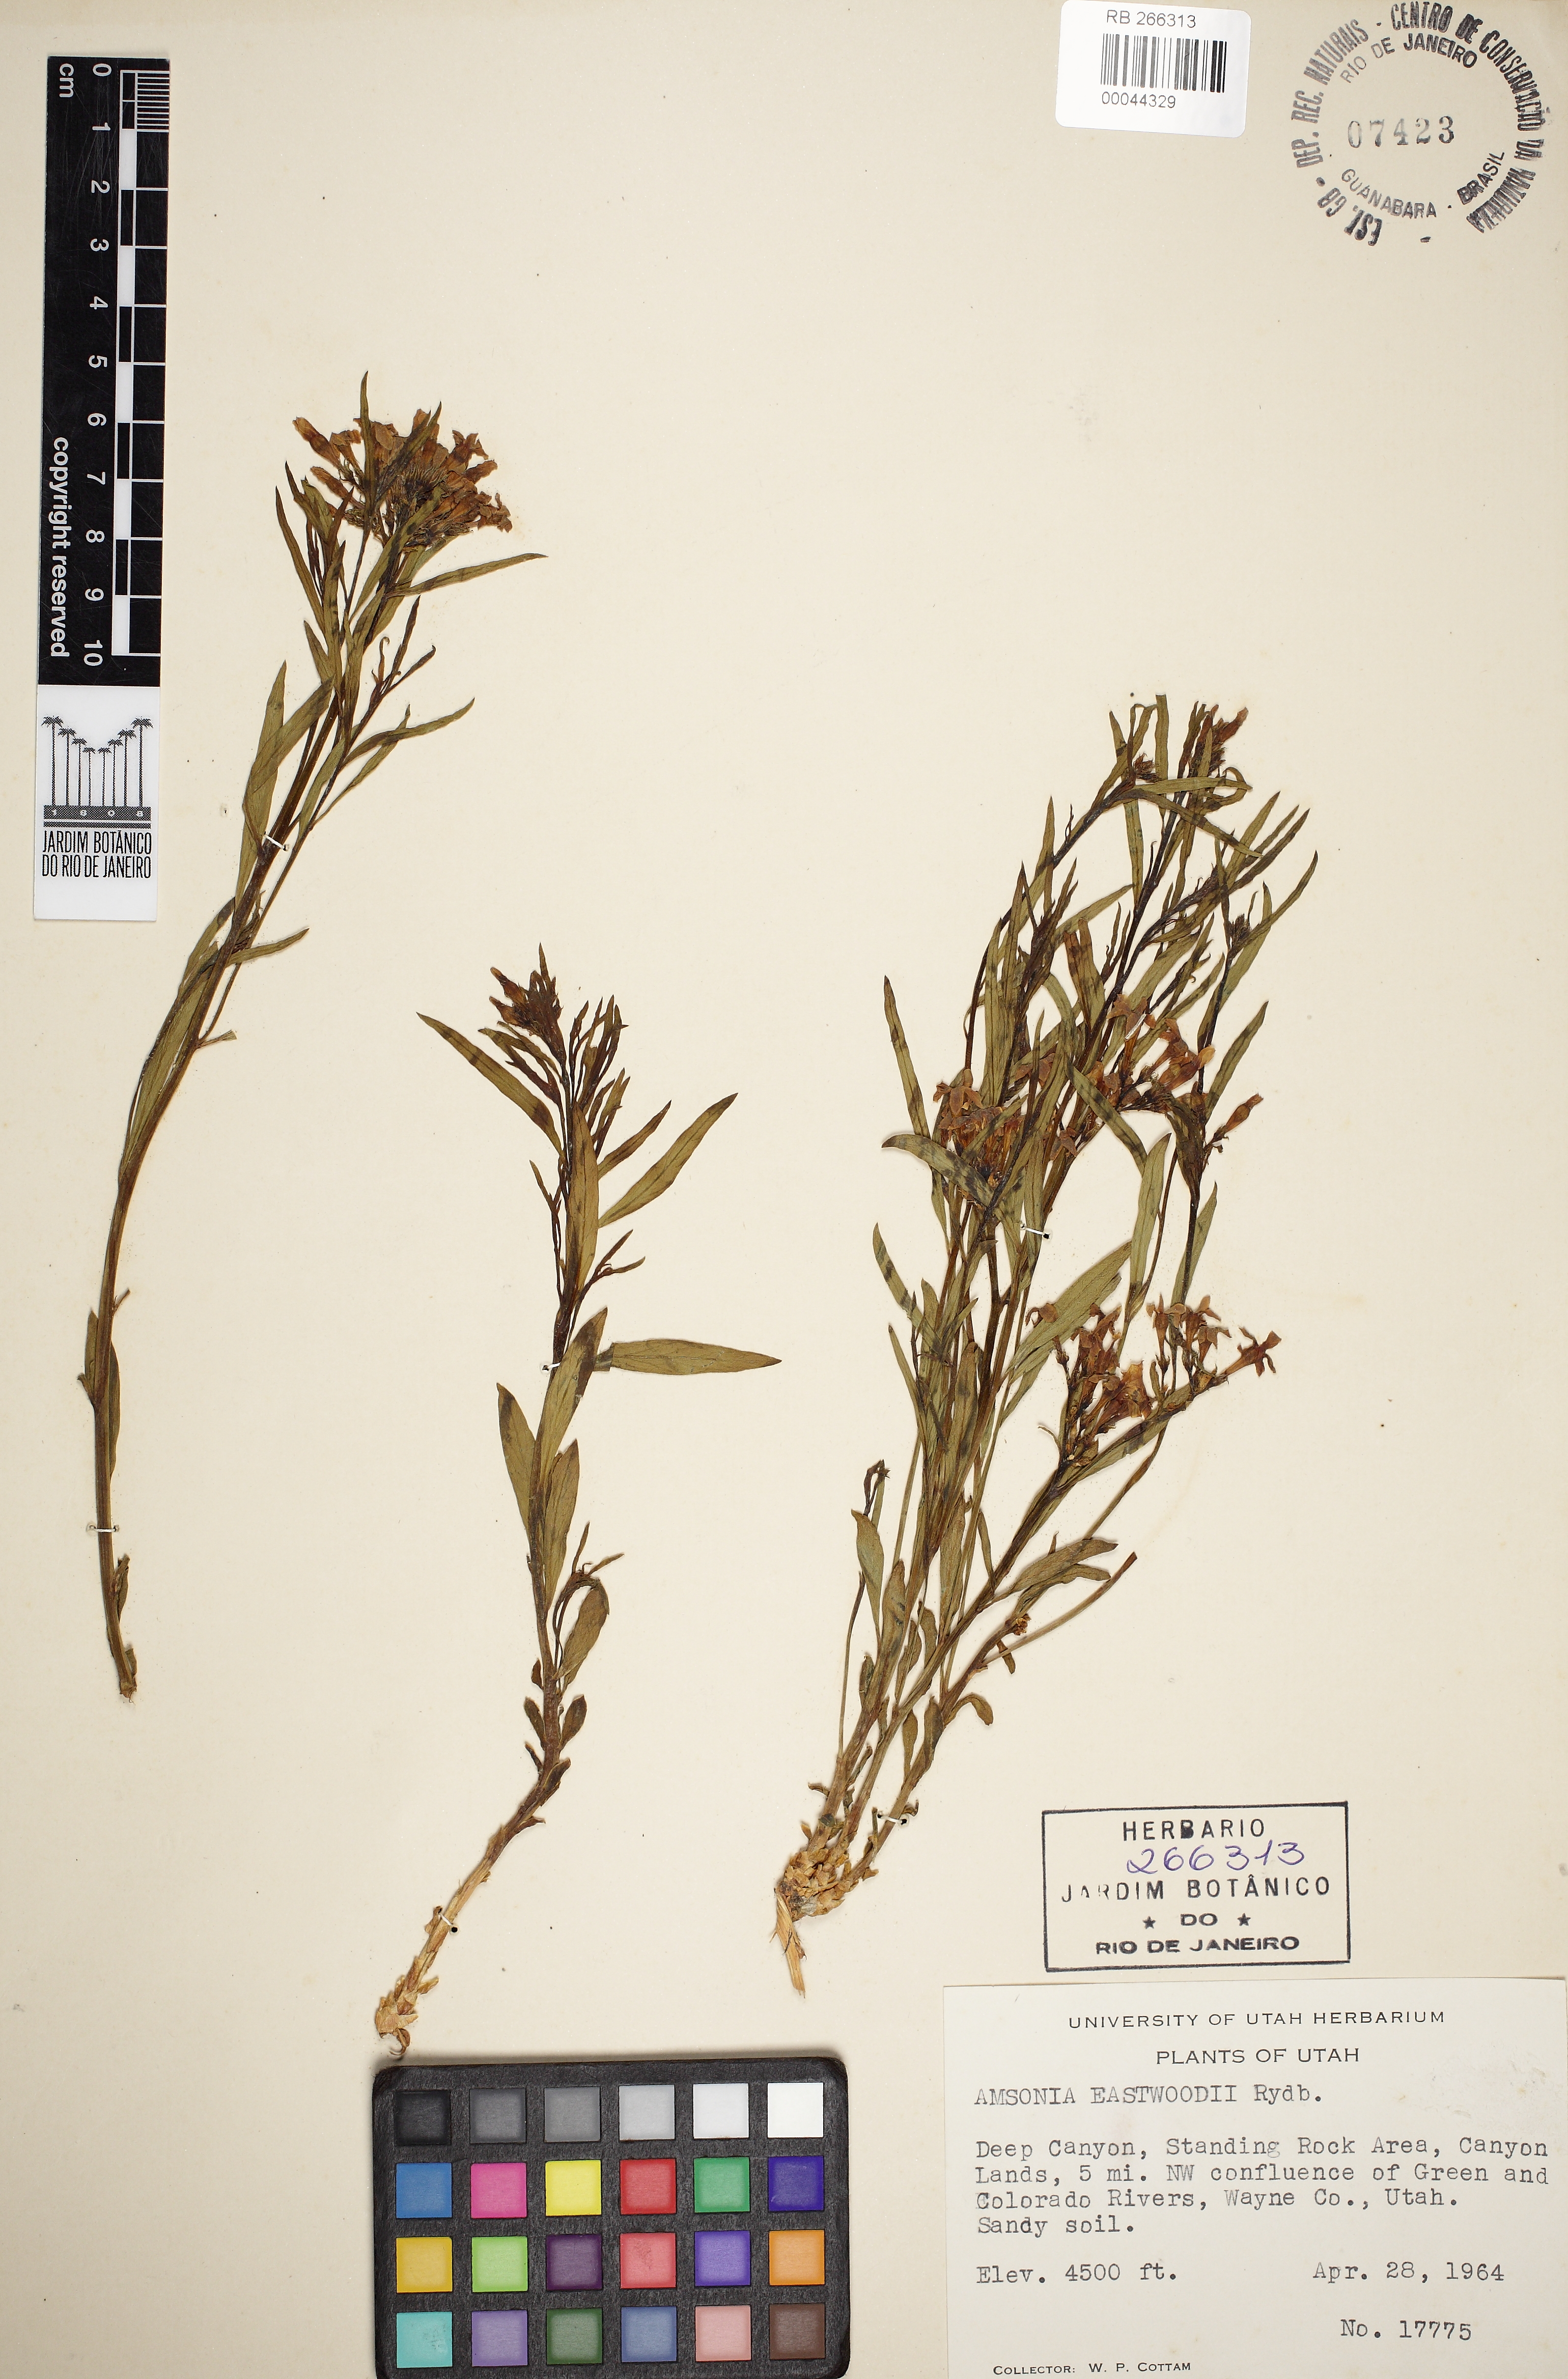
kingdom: Plantae
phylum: Tracheophyta
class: Magnoliopsida
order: Gentianales
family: Apocynaceae
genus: Amsonia
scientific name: Amsonia tomentosa
